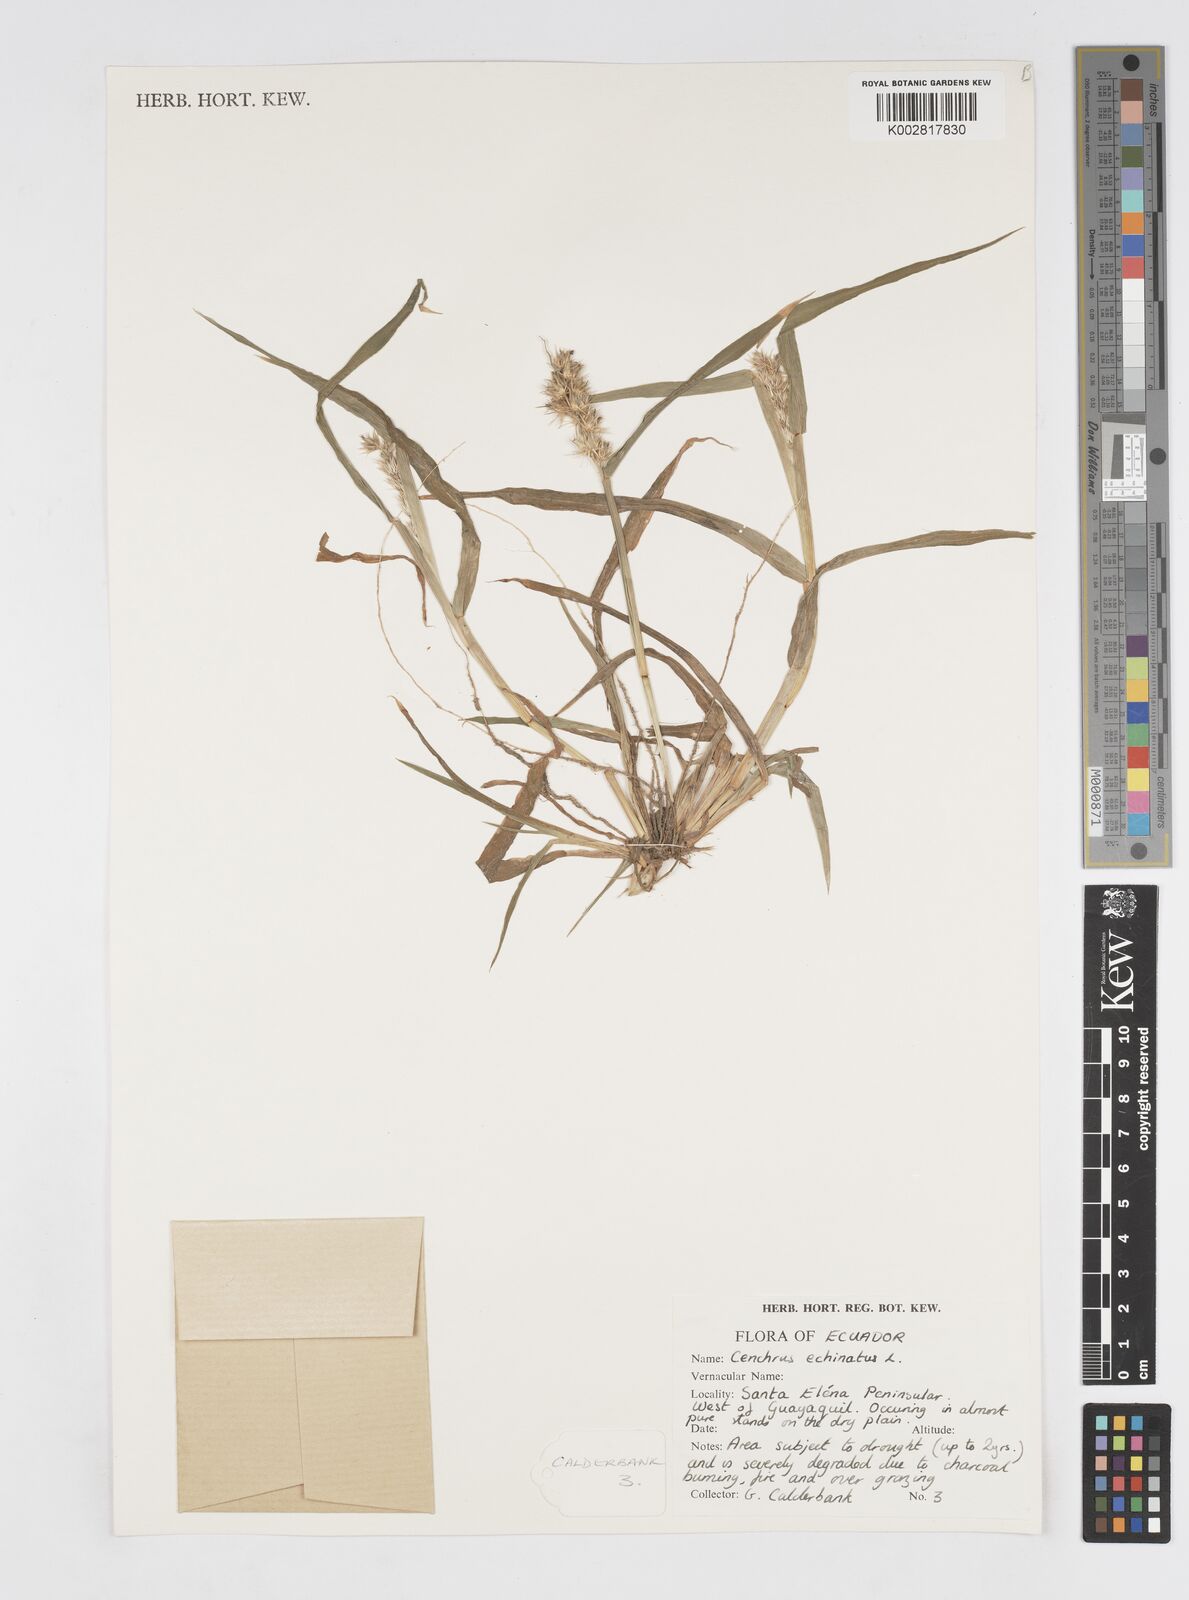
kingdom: Plantae
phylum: Tracheophyta
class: Liliopsida
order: Poales
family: Poaceae
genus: Cenchrus
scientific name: Cenchrus
